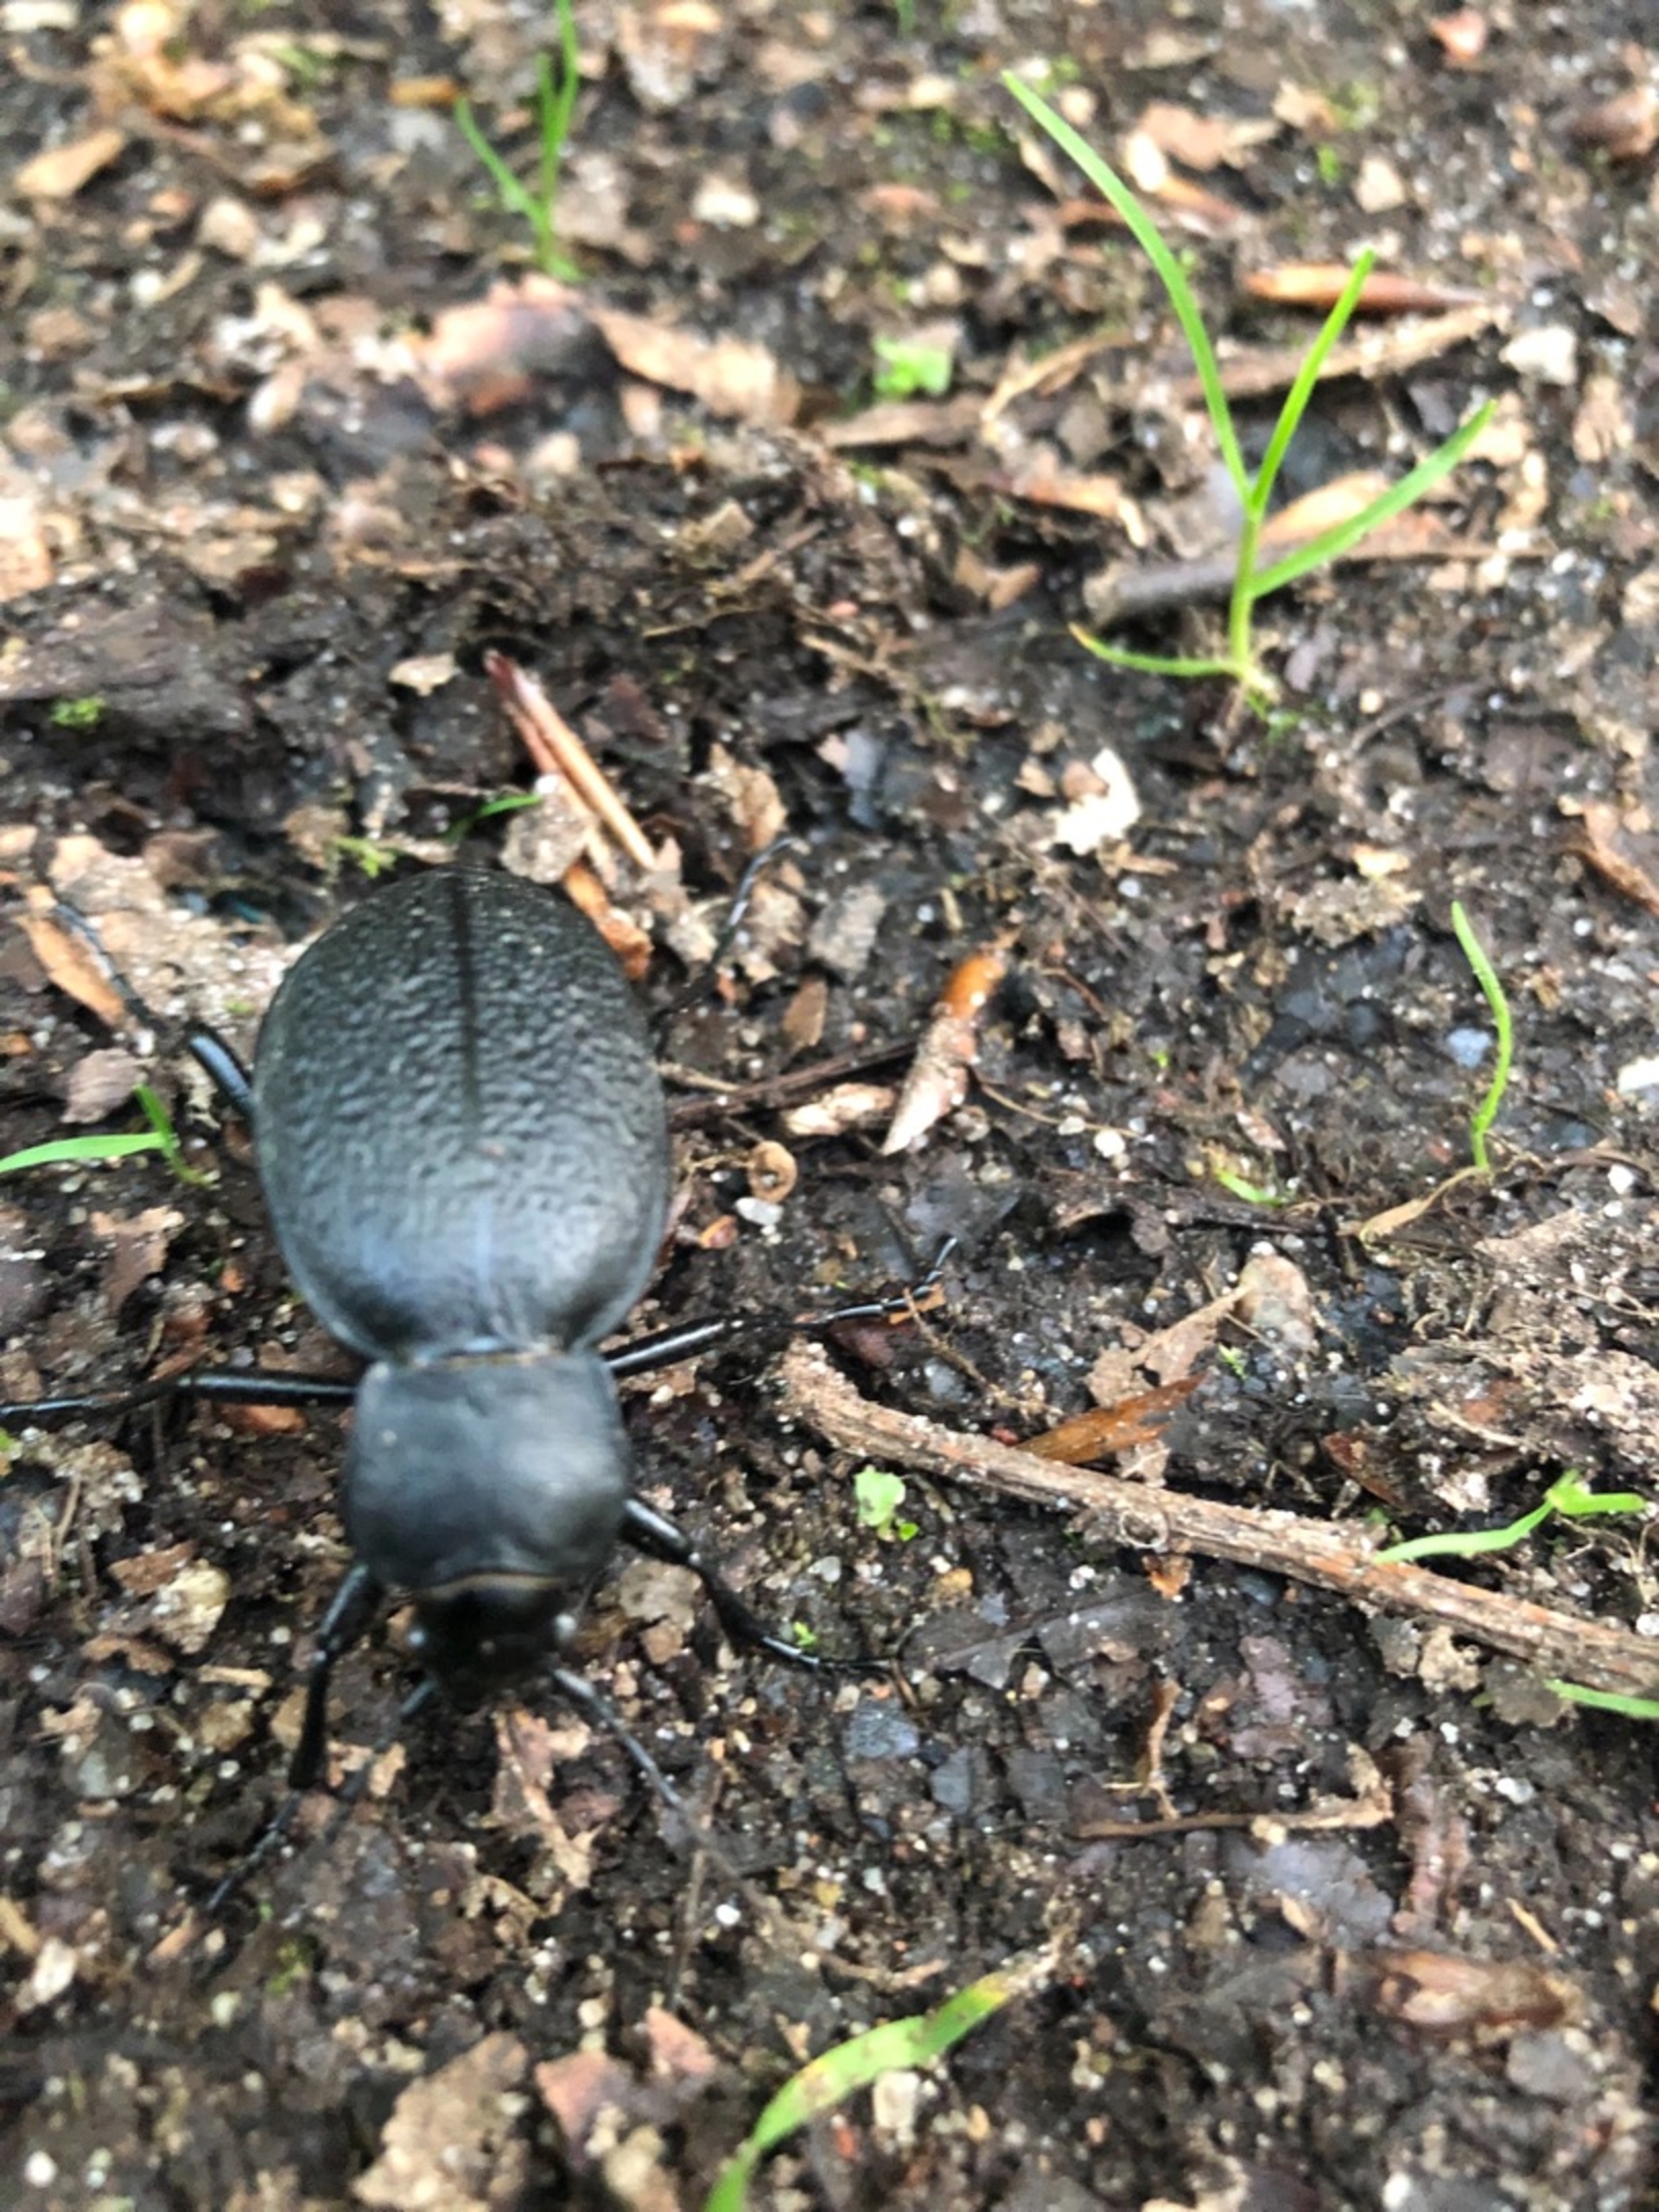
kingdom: Animalia
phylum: Arthropoda
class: Insecta
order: Coleoptera
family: Carabidae
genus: Carabus
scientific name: Carabus coriaceus
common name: Læderløber
